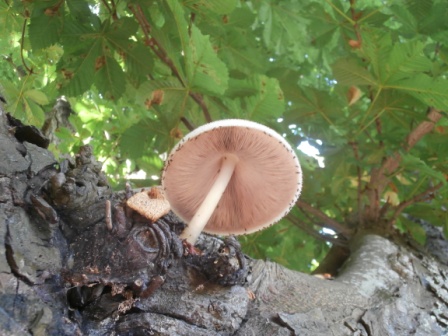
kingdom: Fungi
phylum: Basidiomycota
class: Agaricomycetes
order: Agaricales
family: Pluteaceae
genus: Volvariella
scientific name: Volvariella bombycina
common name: silkehåret posesvamp
